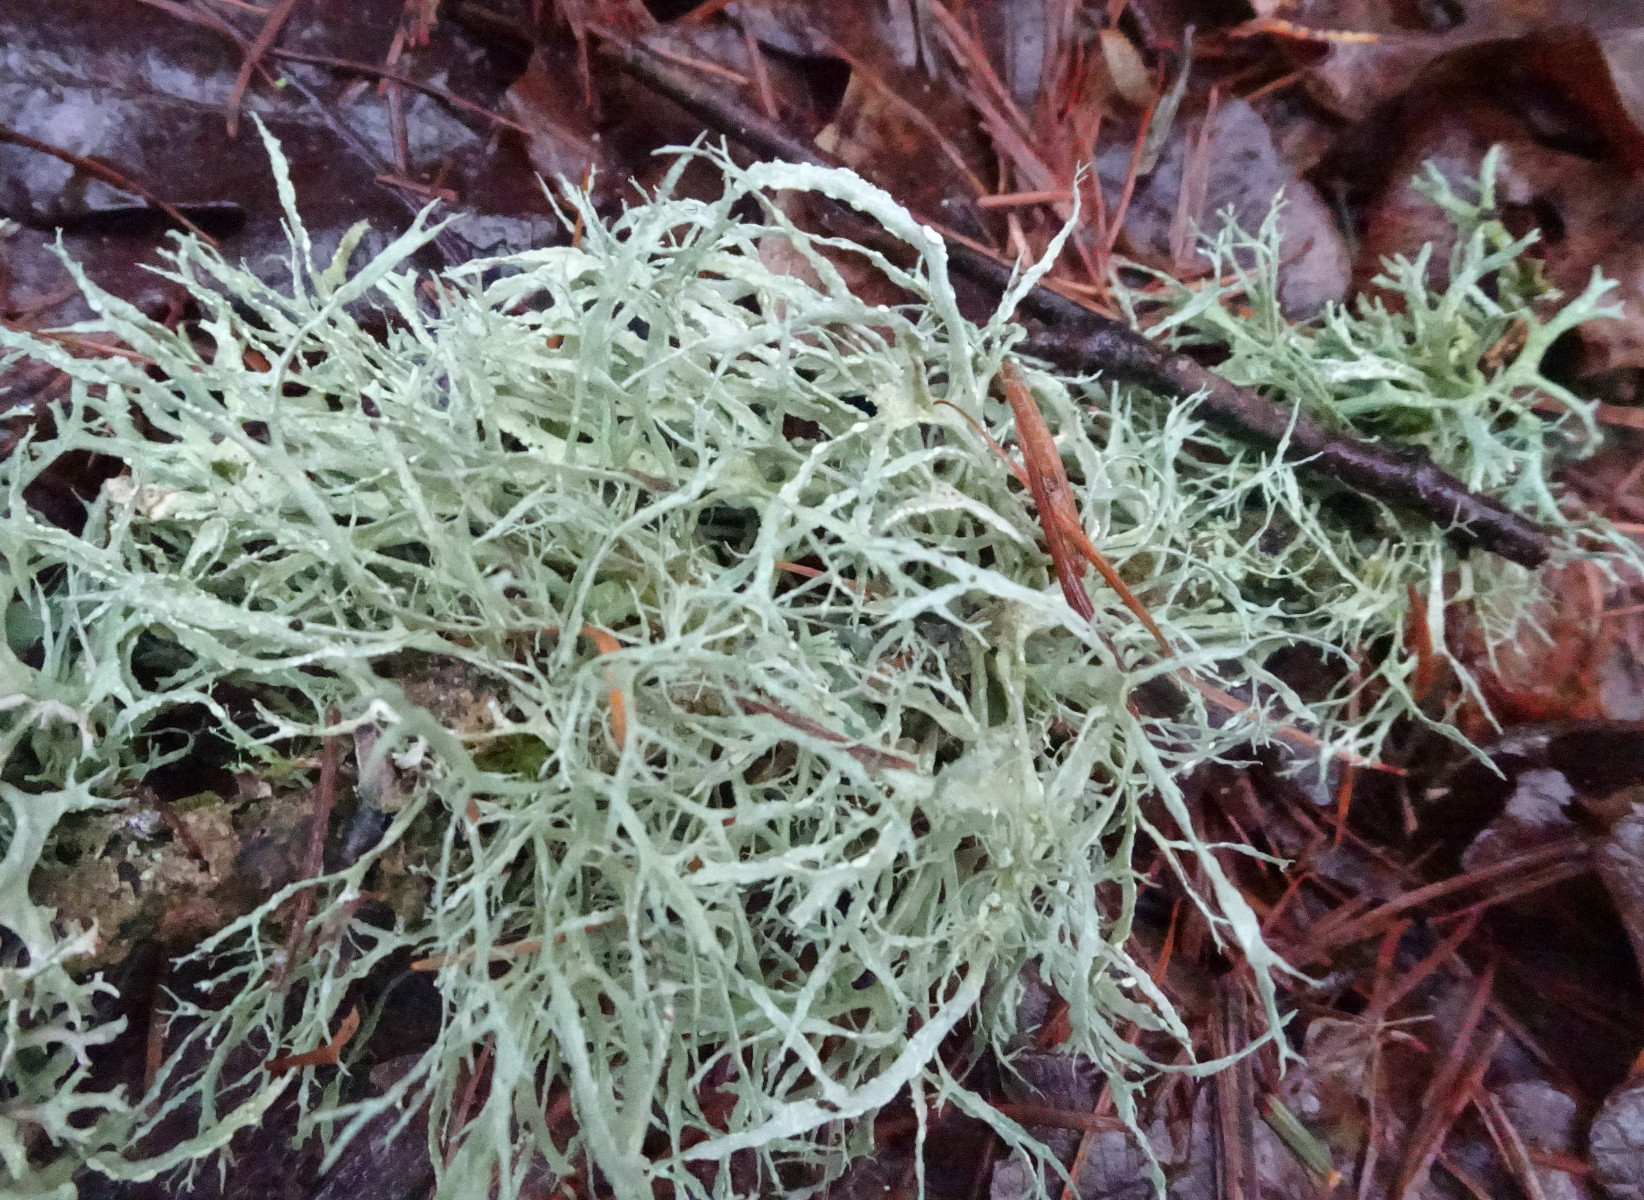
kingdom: Fungi
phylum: Ascomycota
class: Lecanoromycetes
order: Lecanorales
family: Ramalinaceae
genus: Ramalina
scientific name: Ramalina farinacea
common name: melet grenlav
